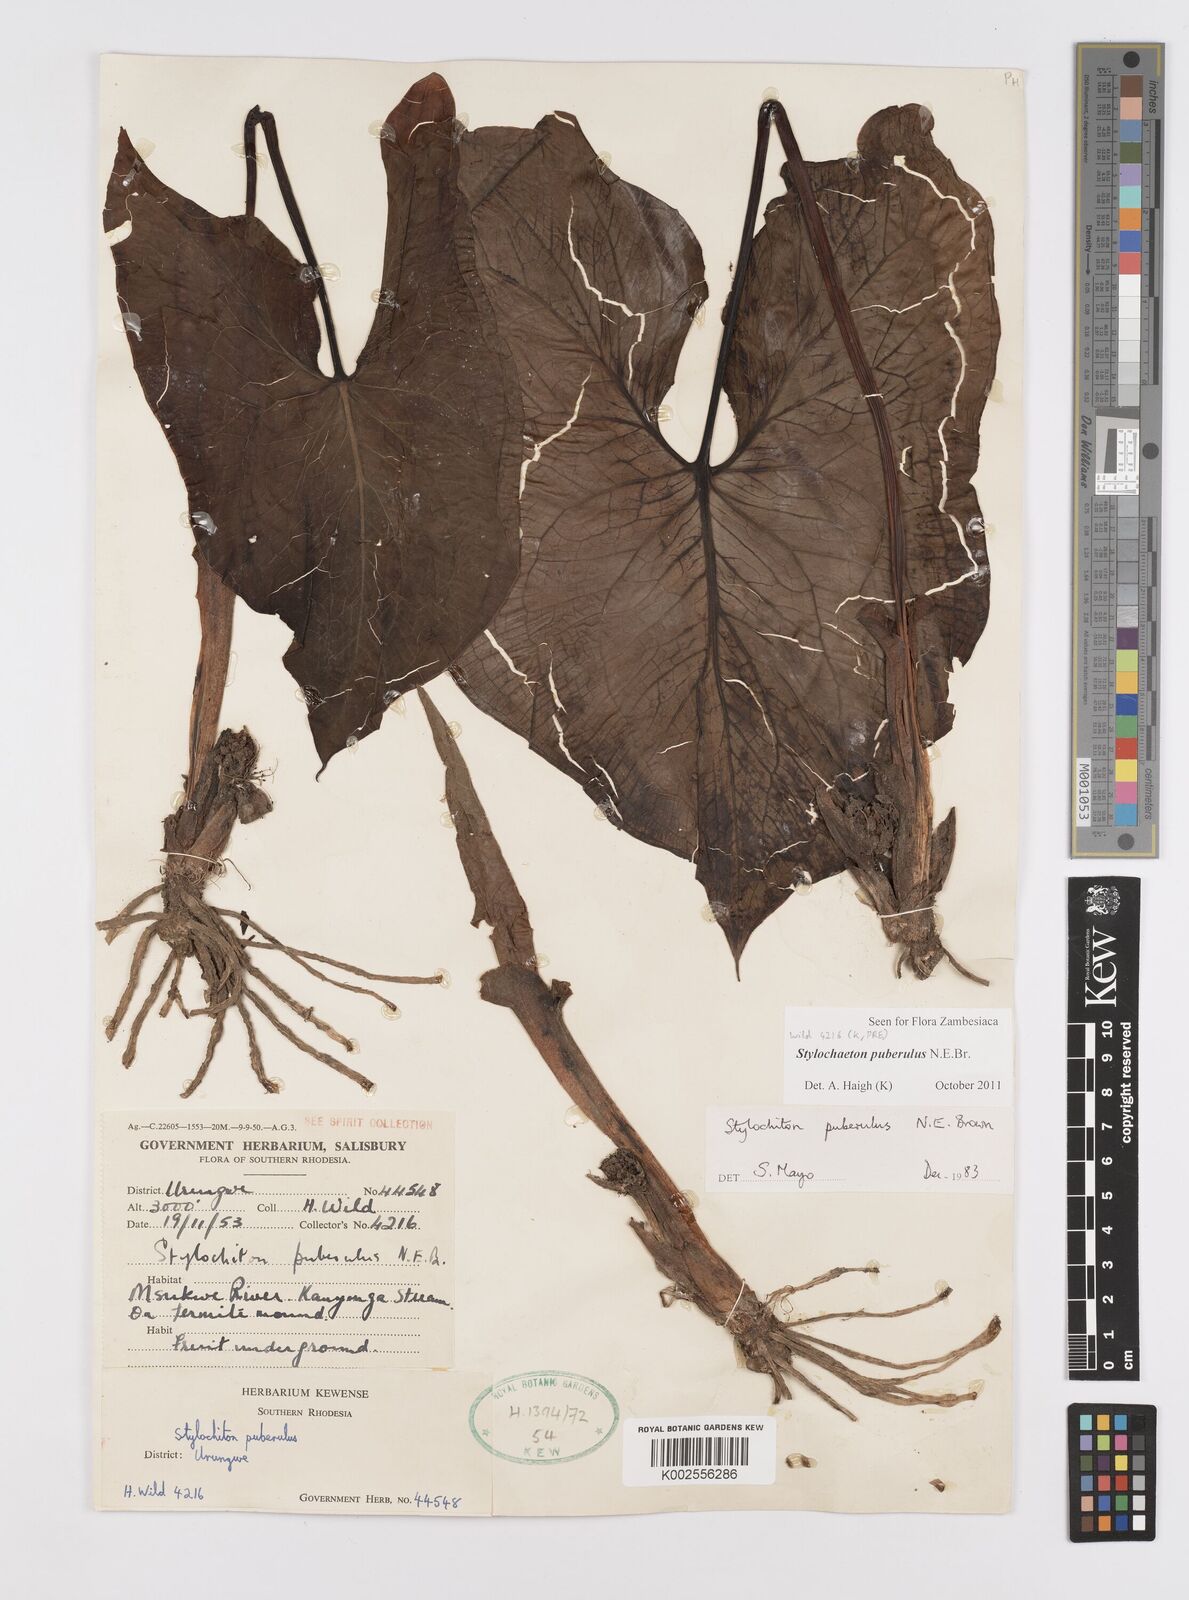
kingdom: Plantae
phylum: Tracheophyta
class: Liliopsida
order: Alismatales
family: Araceae
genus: Stylochaeton
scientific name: Stylochaeton puberulum
